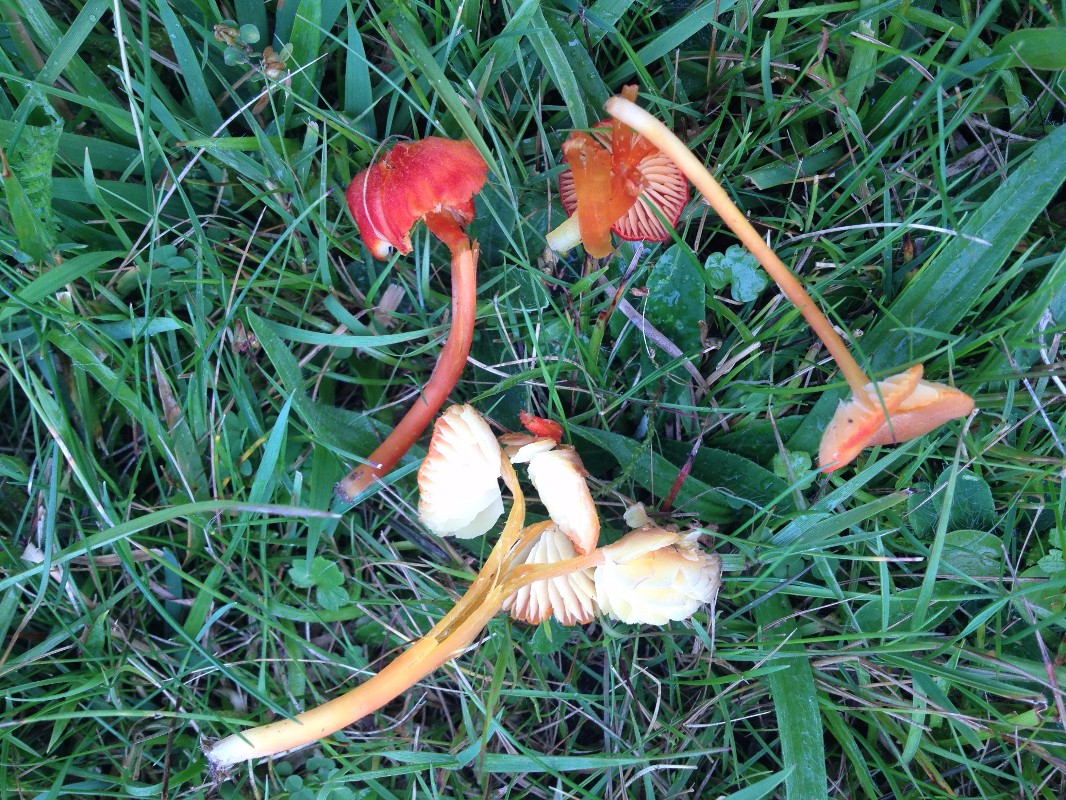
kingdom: Fungi
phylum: Basidiomycota
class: Agaricomycetes
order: Agaricales
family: Hygrophoraceae
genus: Hygrocybe
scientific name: Hygrocybe helobia
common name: hvidløgs-vokshat
